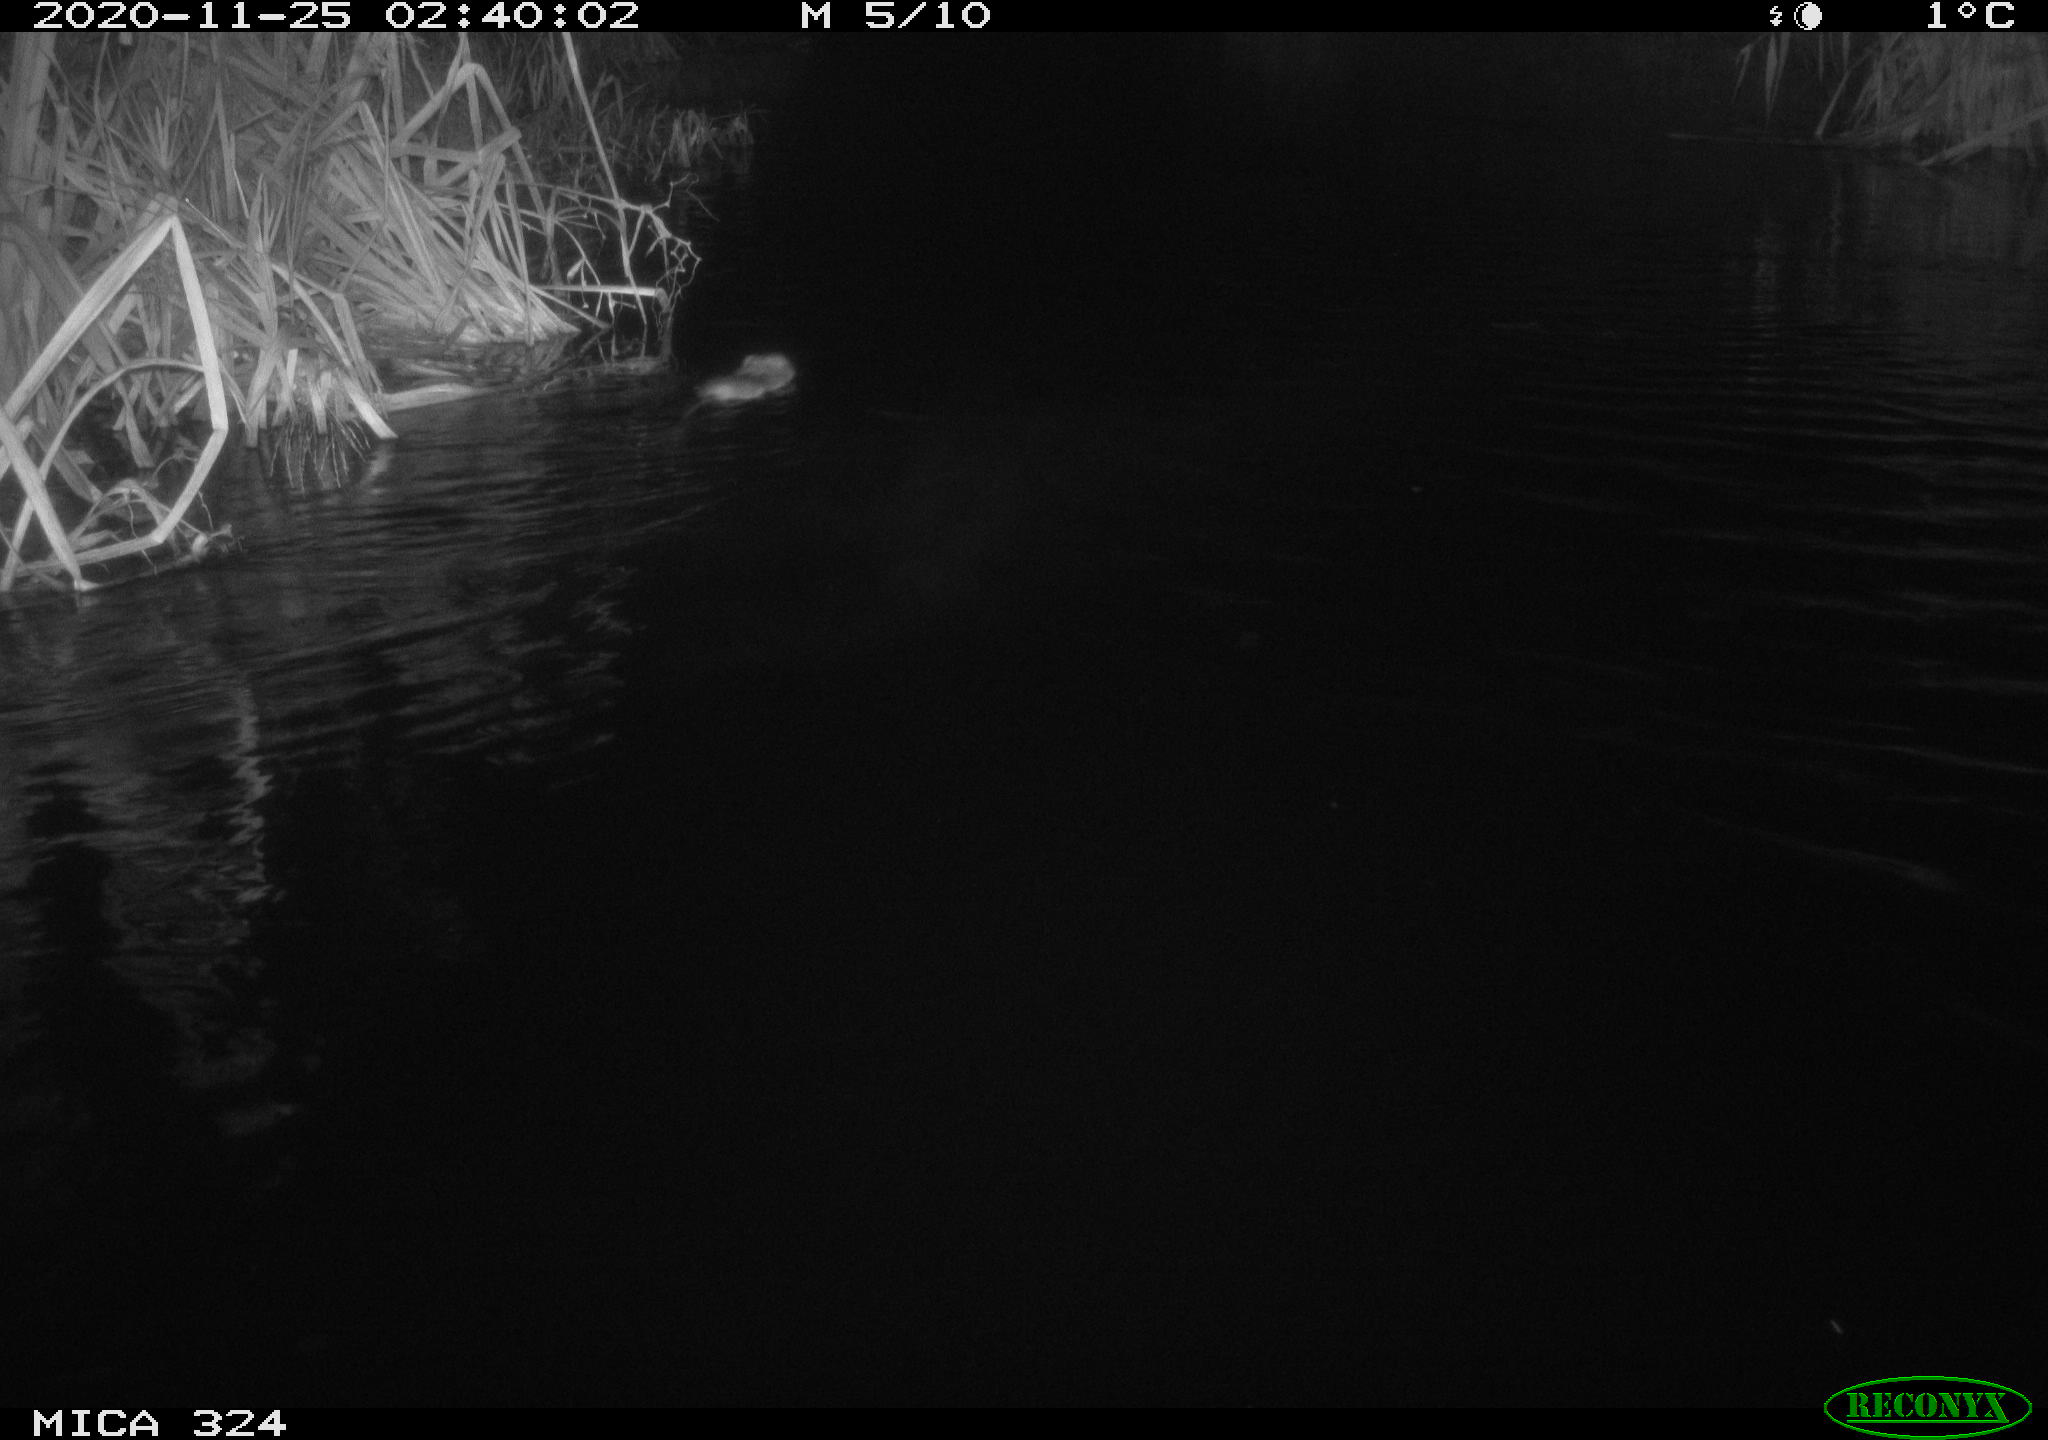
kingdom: Animalia
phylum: Chordata
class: Mammalia
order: Rodentia
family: Cricetidae
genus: Ondatra
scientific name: Ondatra zibethicus
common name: Muskrat
